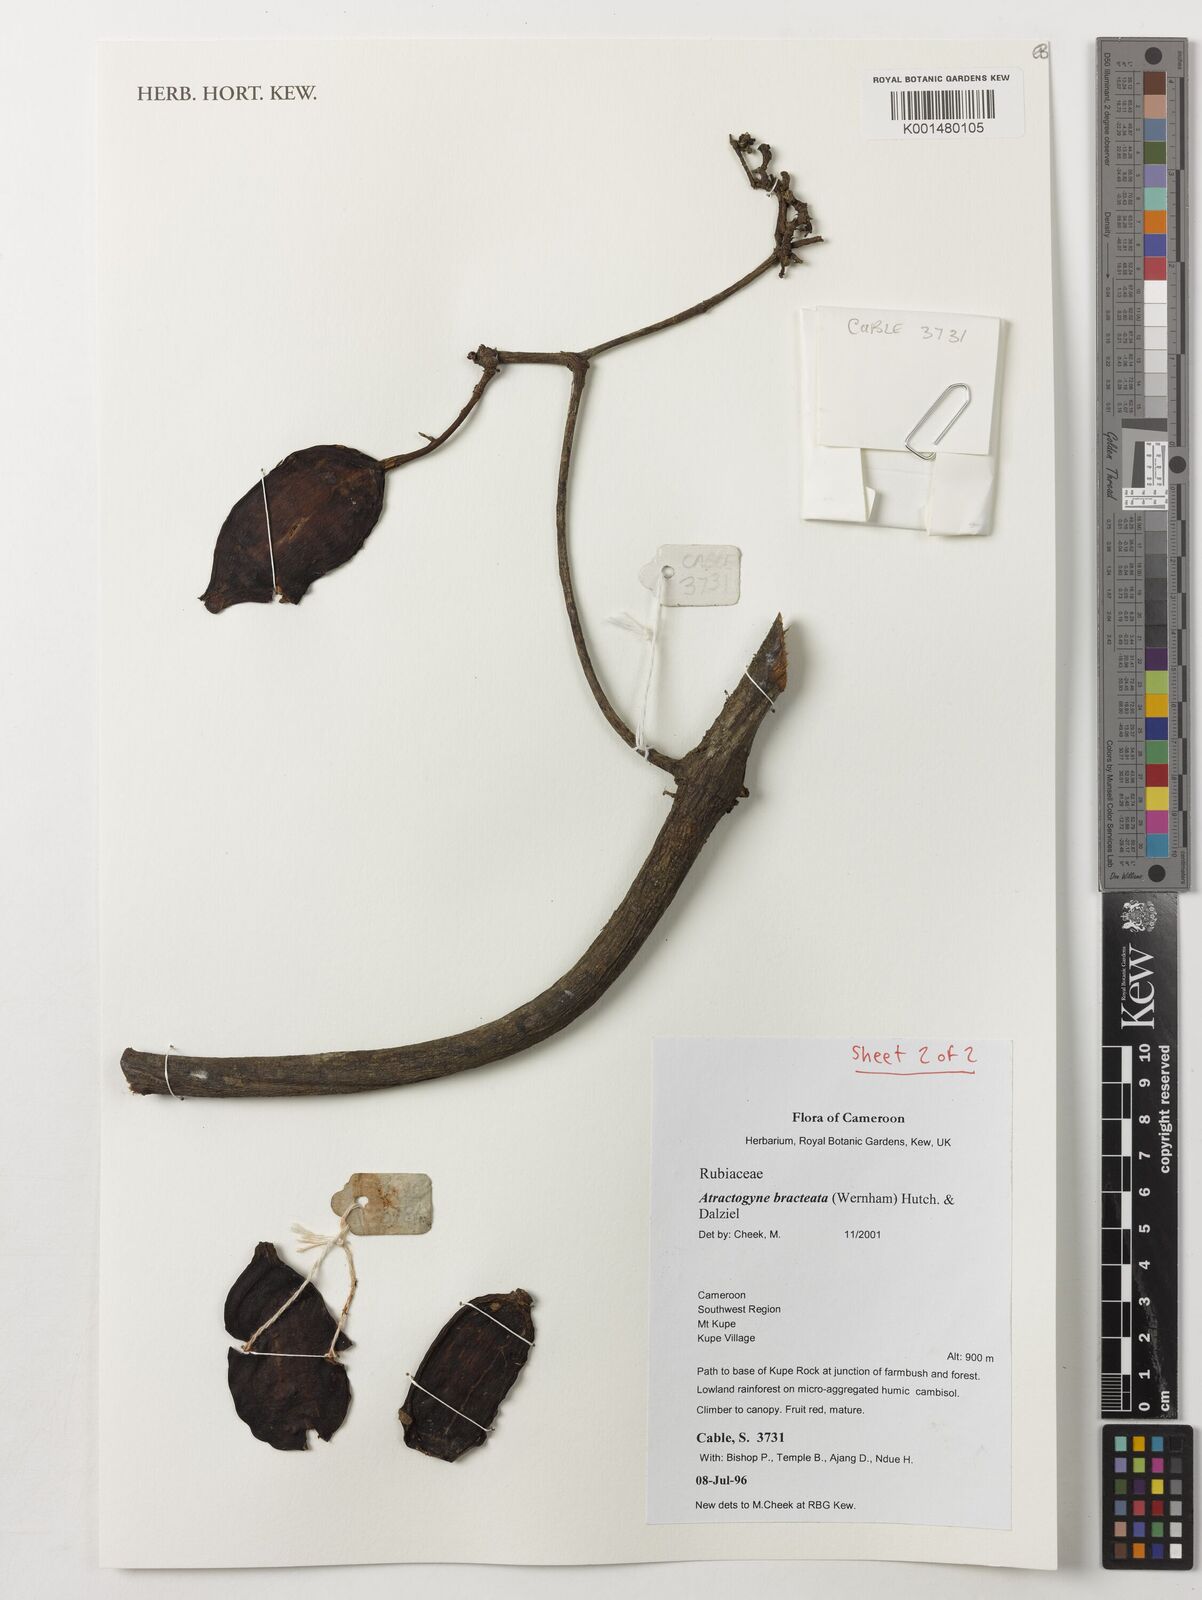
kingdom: Plantae
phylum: Tracheophyta
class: Magnoliopsida
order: Gentianales
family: Rubiaceae
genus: Atractogyne
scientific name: Atractogyne bracteata
